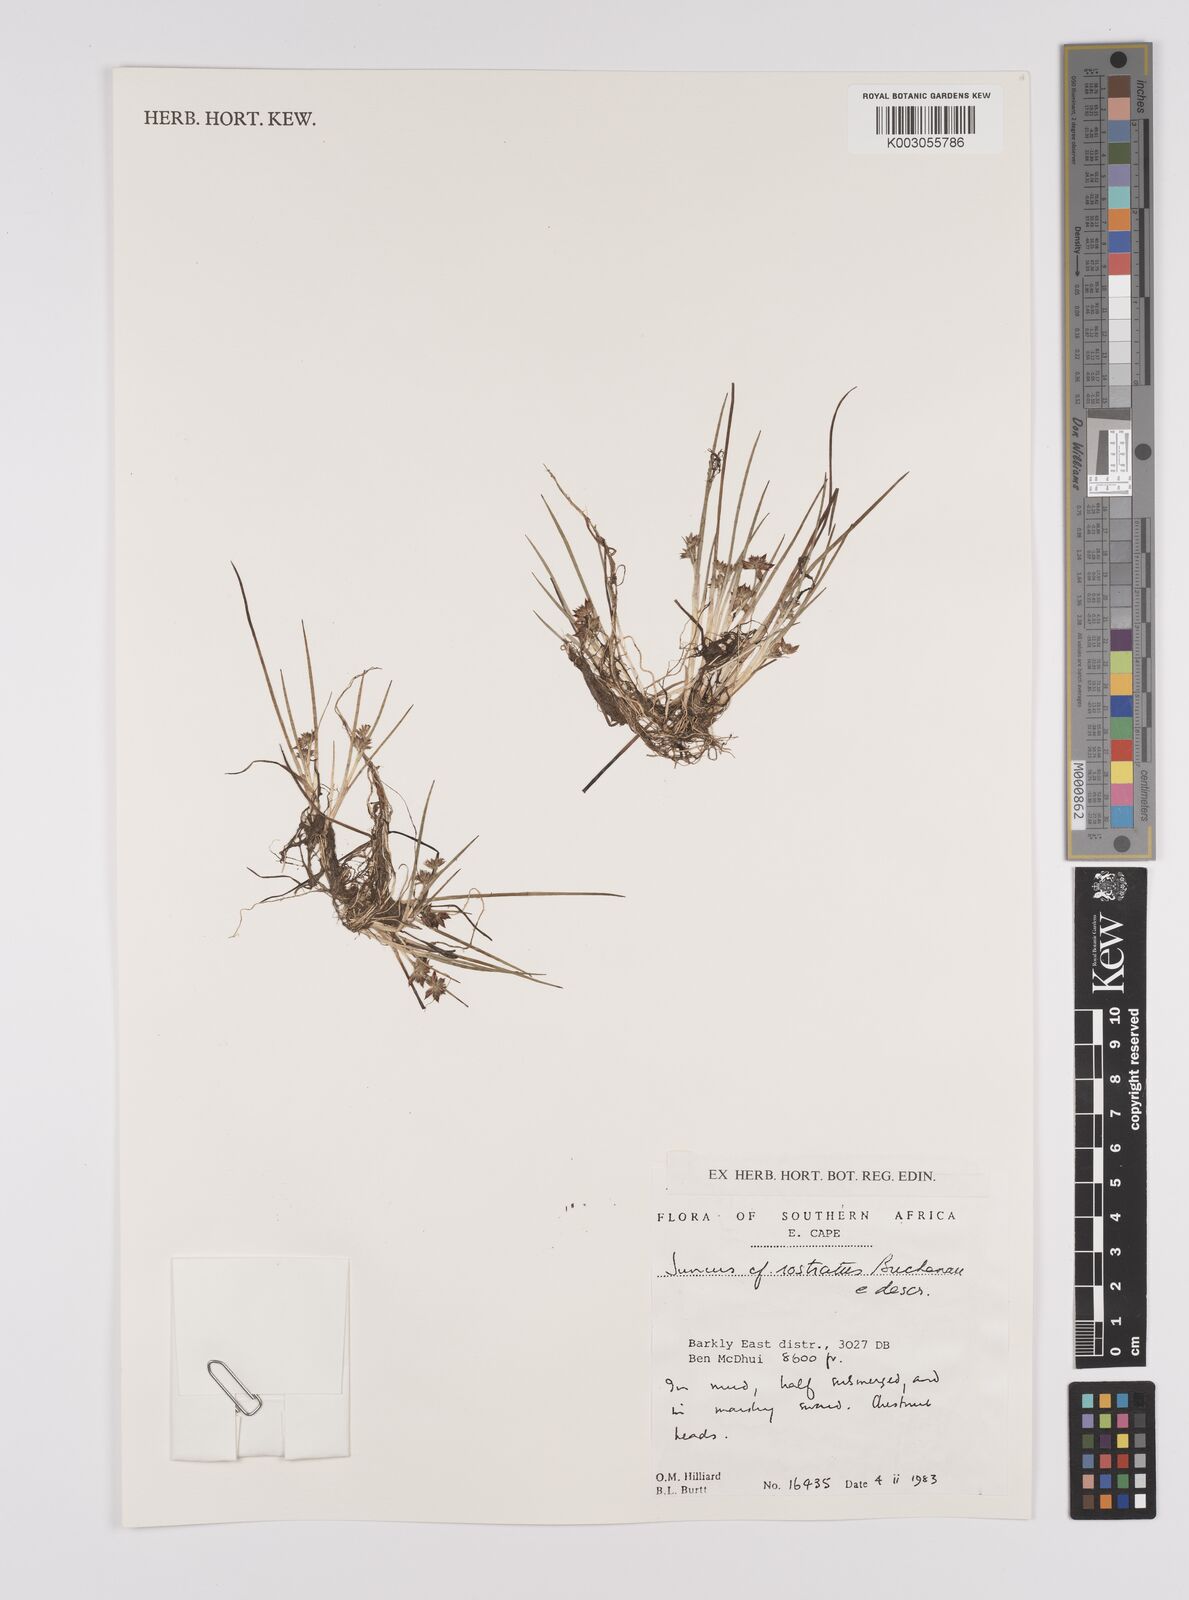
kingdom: Plantae
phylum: Tracheophyta
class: Liliopsida
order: Poales
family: Juncaceae
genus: Juncus
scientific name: Juncus exsertus
